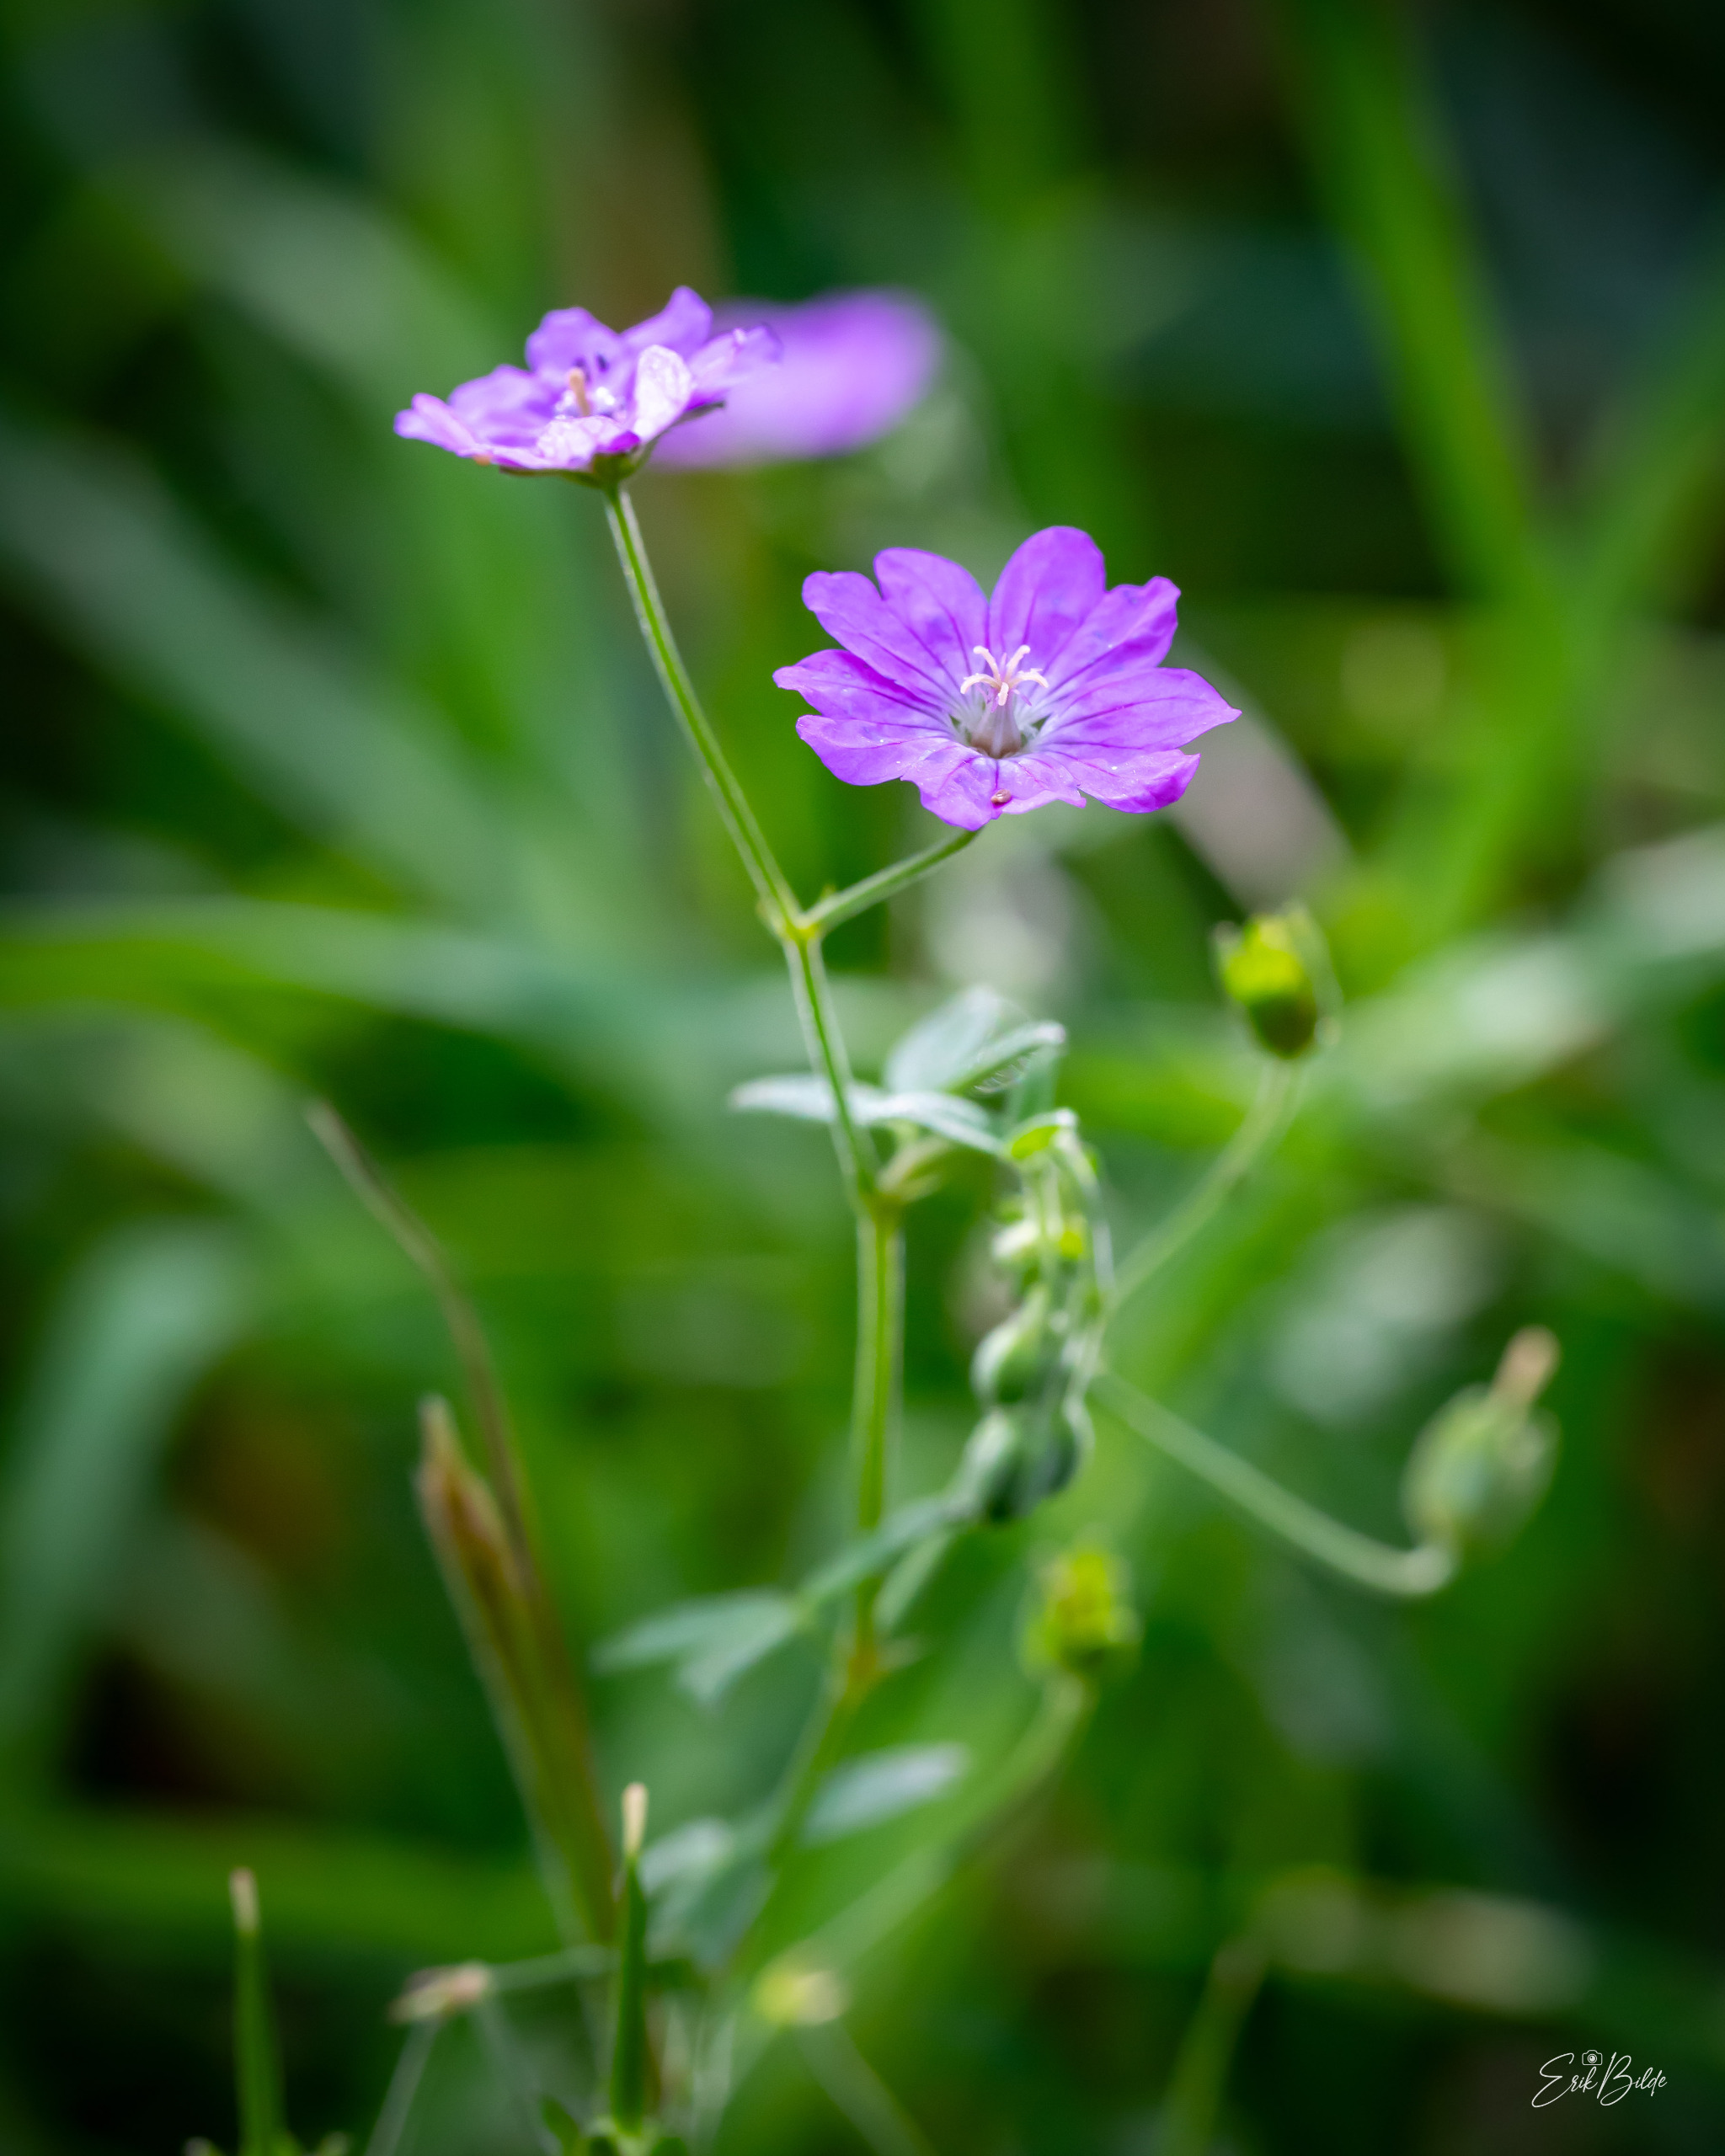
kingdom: Plantae
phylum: Tracheophyta
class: Magnoliopsida
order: Geraniales
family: Geraniaceae
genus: Geranium
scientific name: Geranium pyrenaicum
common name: Pyrenæisk storkenæb
